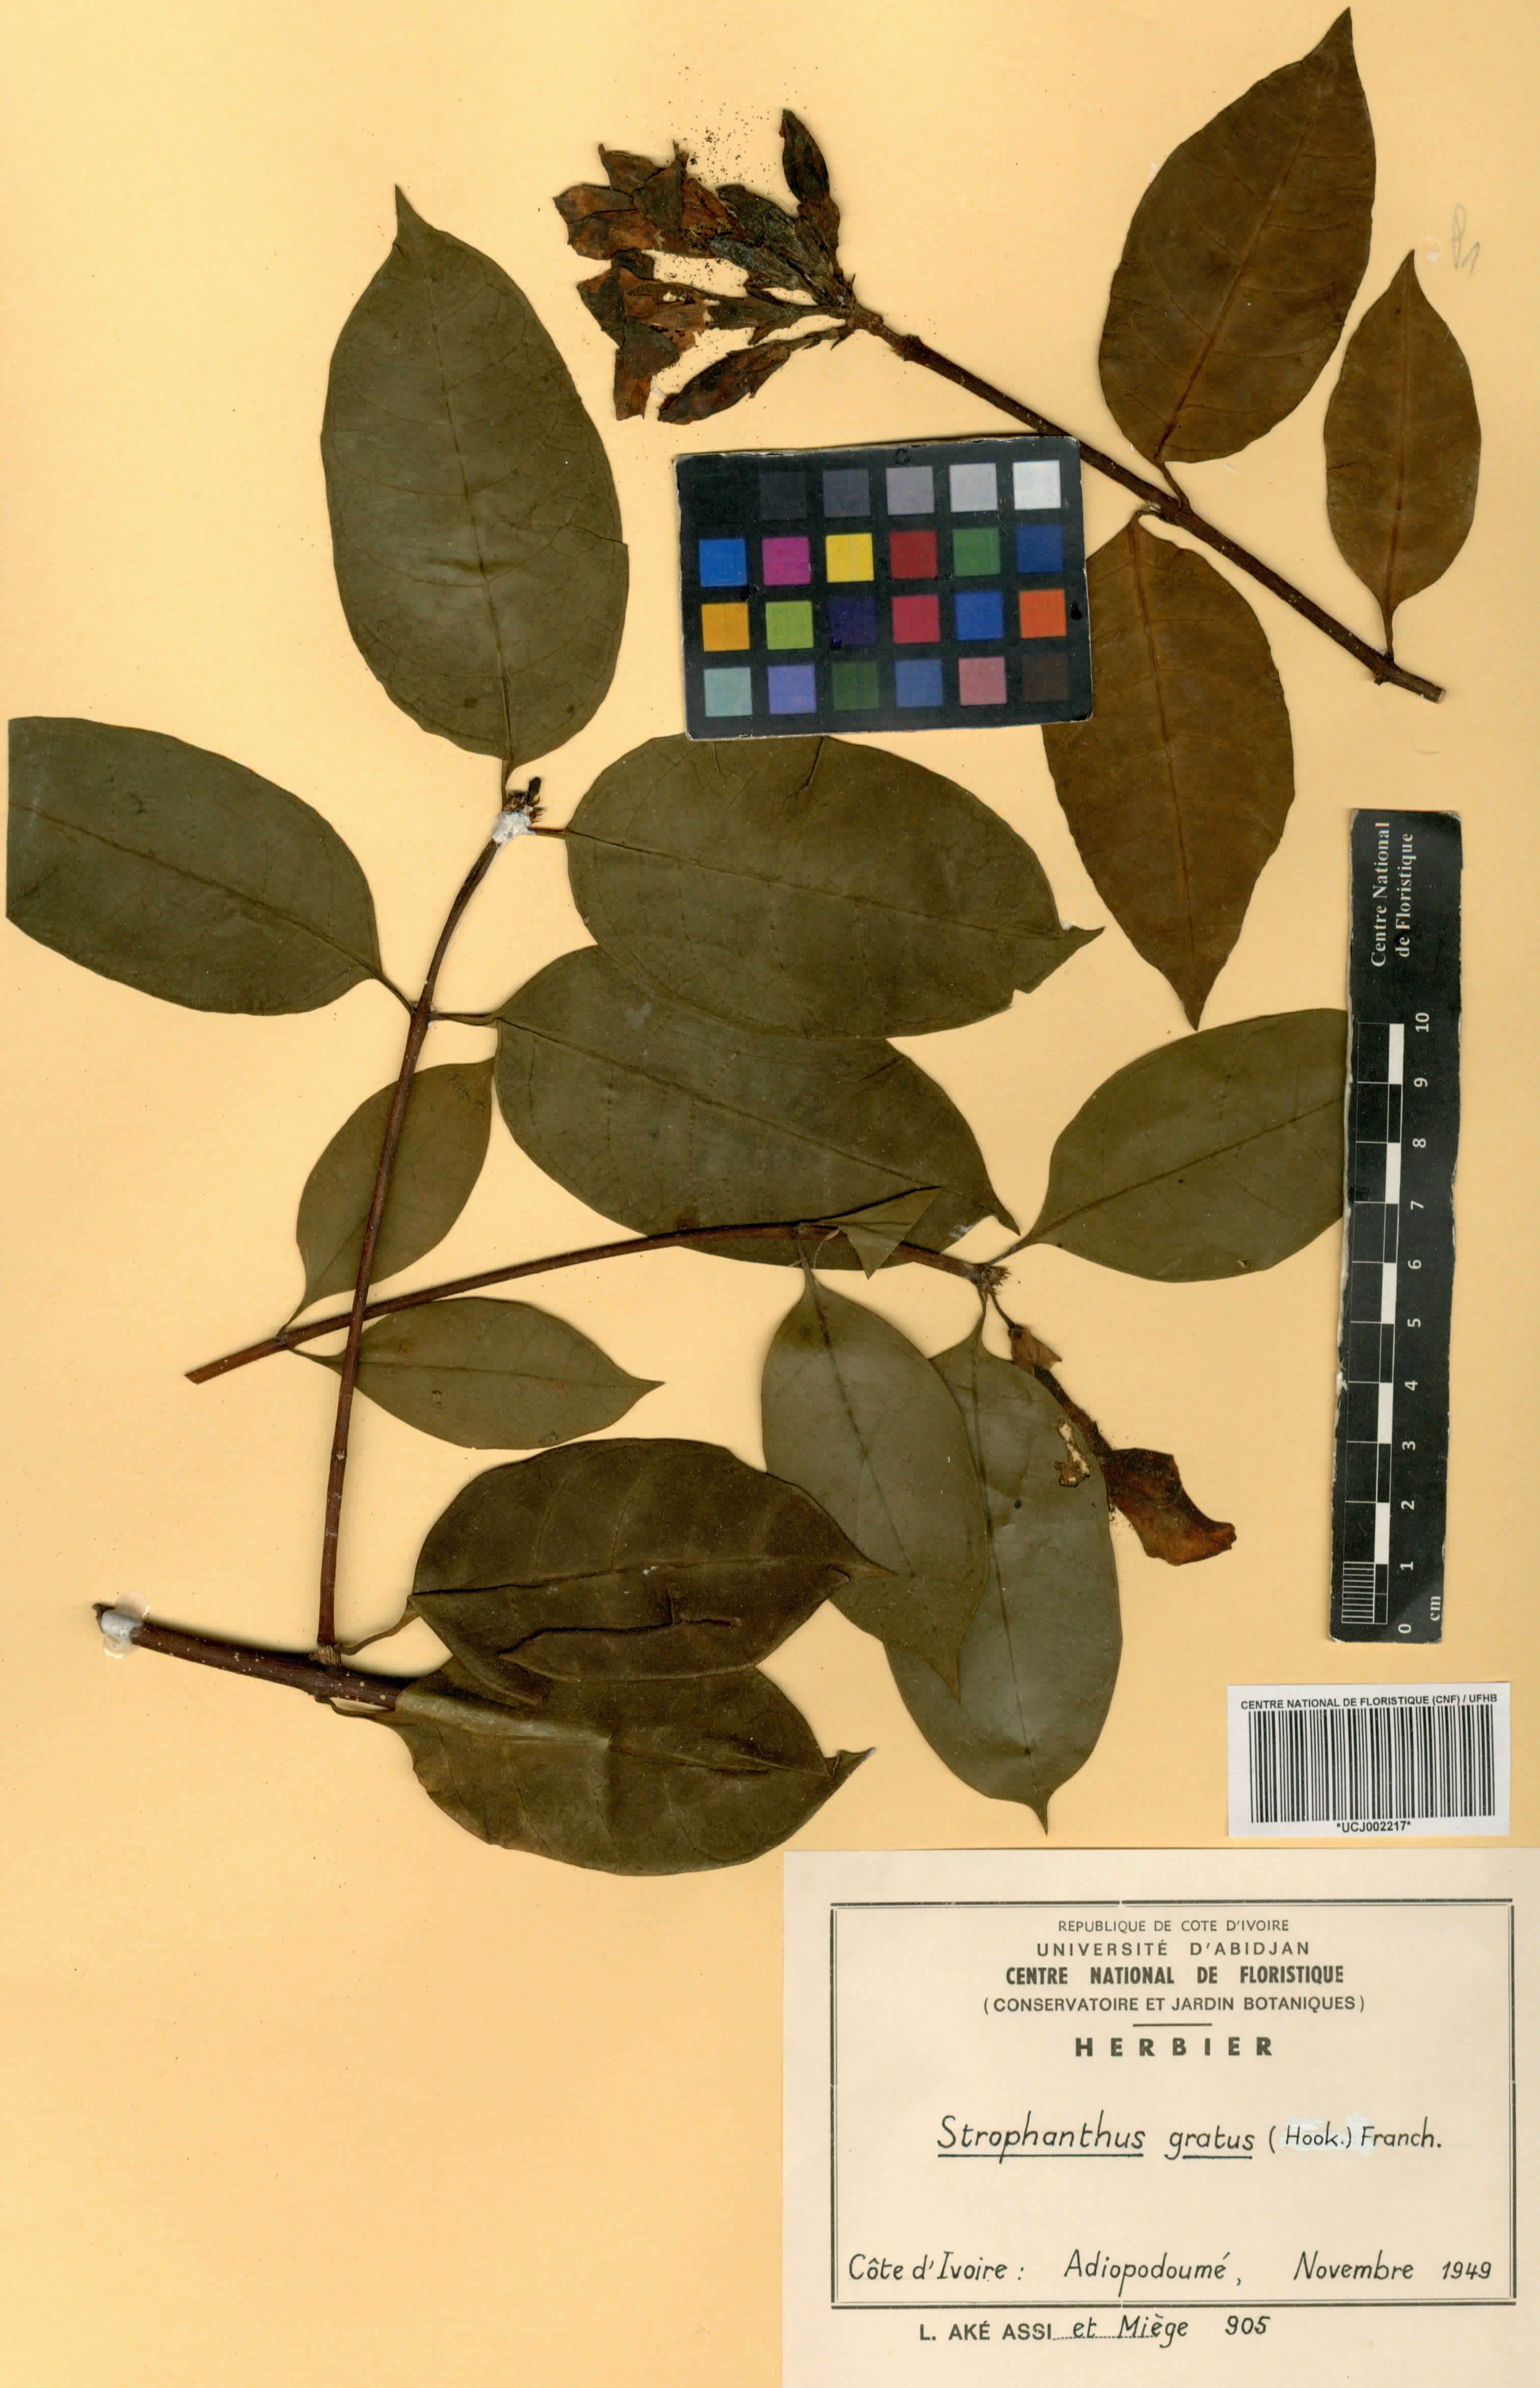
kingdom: Plantae
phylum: Tracheophyta
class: Magnoliopsida
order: Gentianales
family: Apocynaceae
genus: Strophanthus
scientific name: Strophanthus gratus
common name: Climbing-oleander
